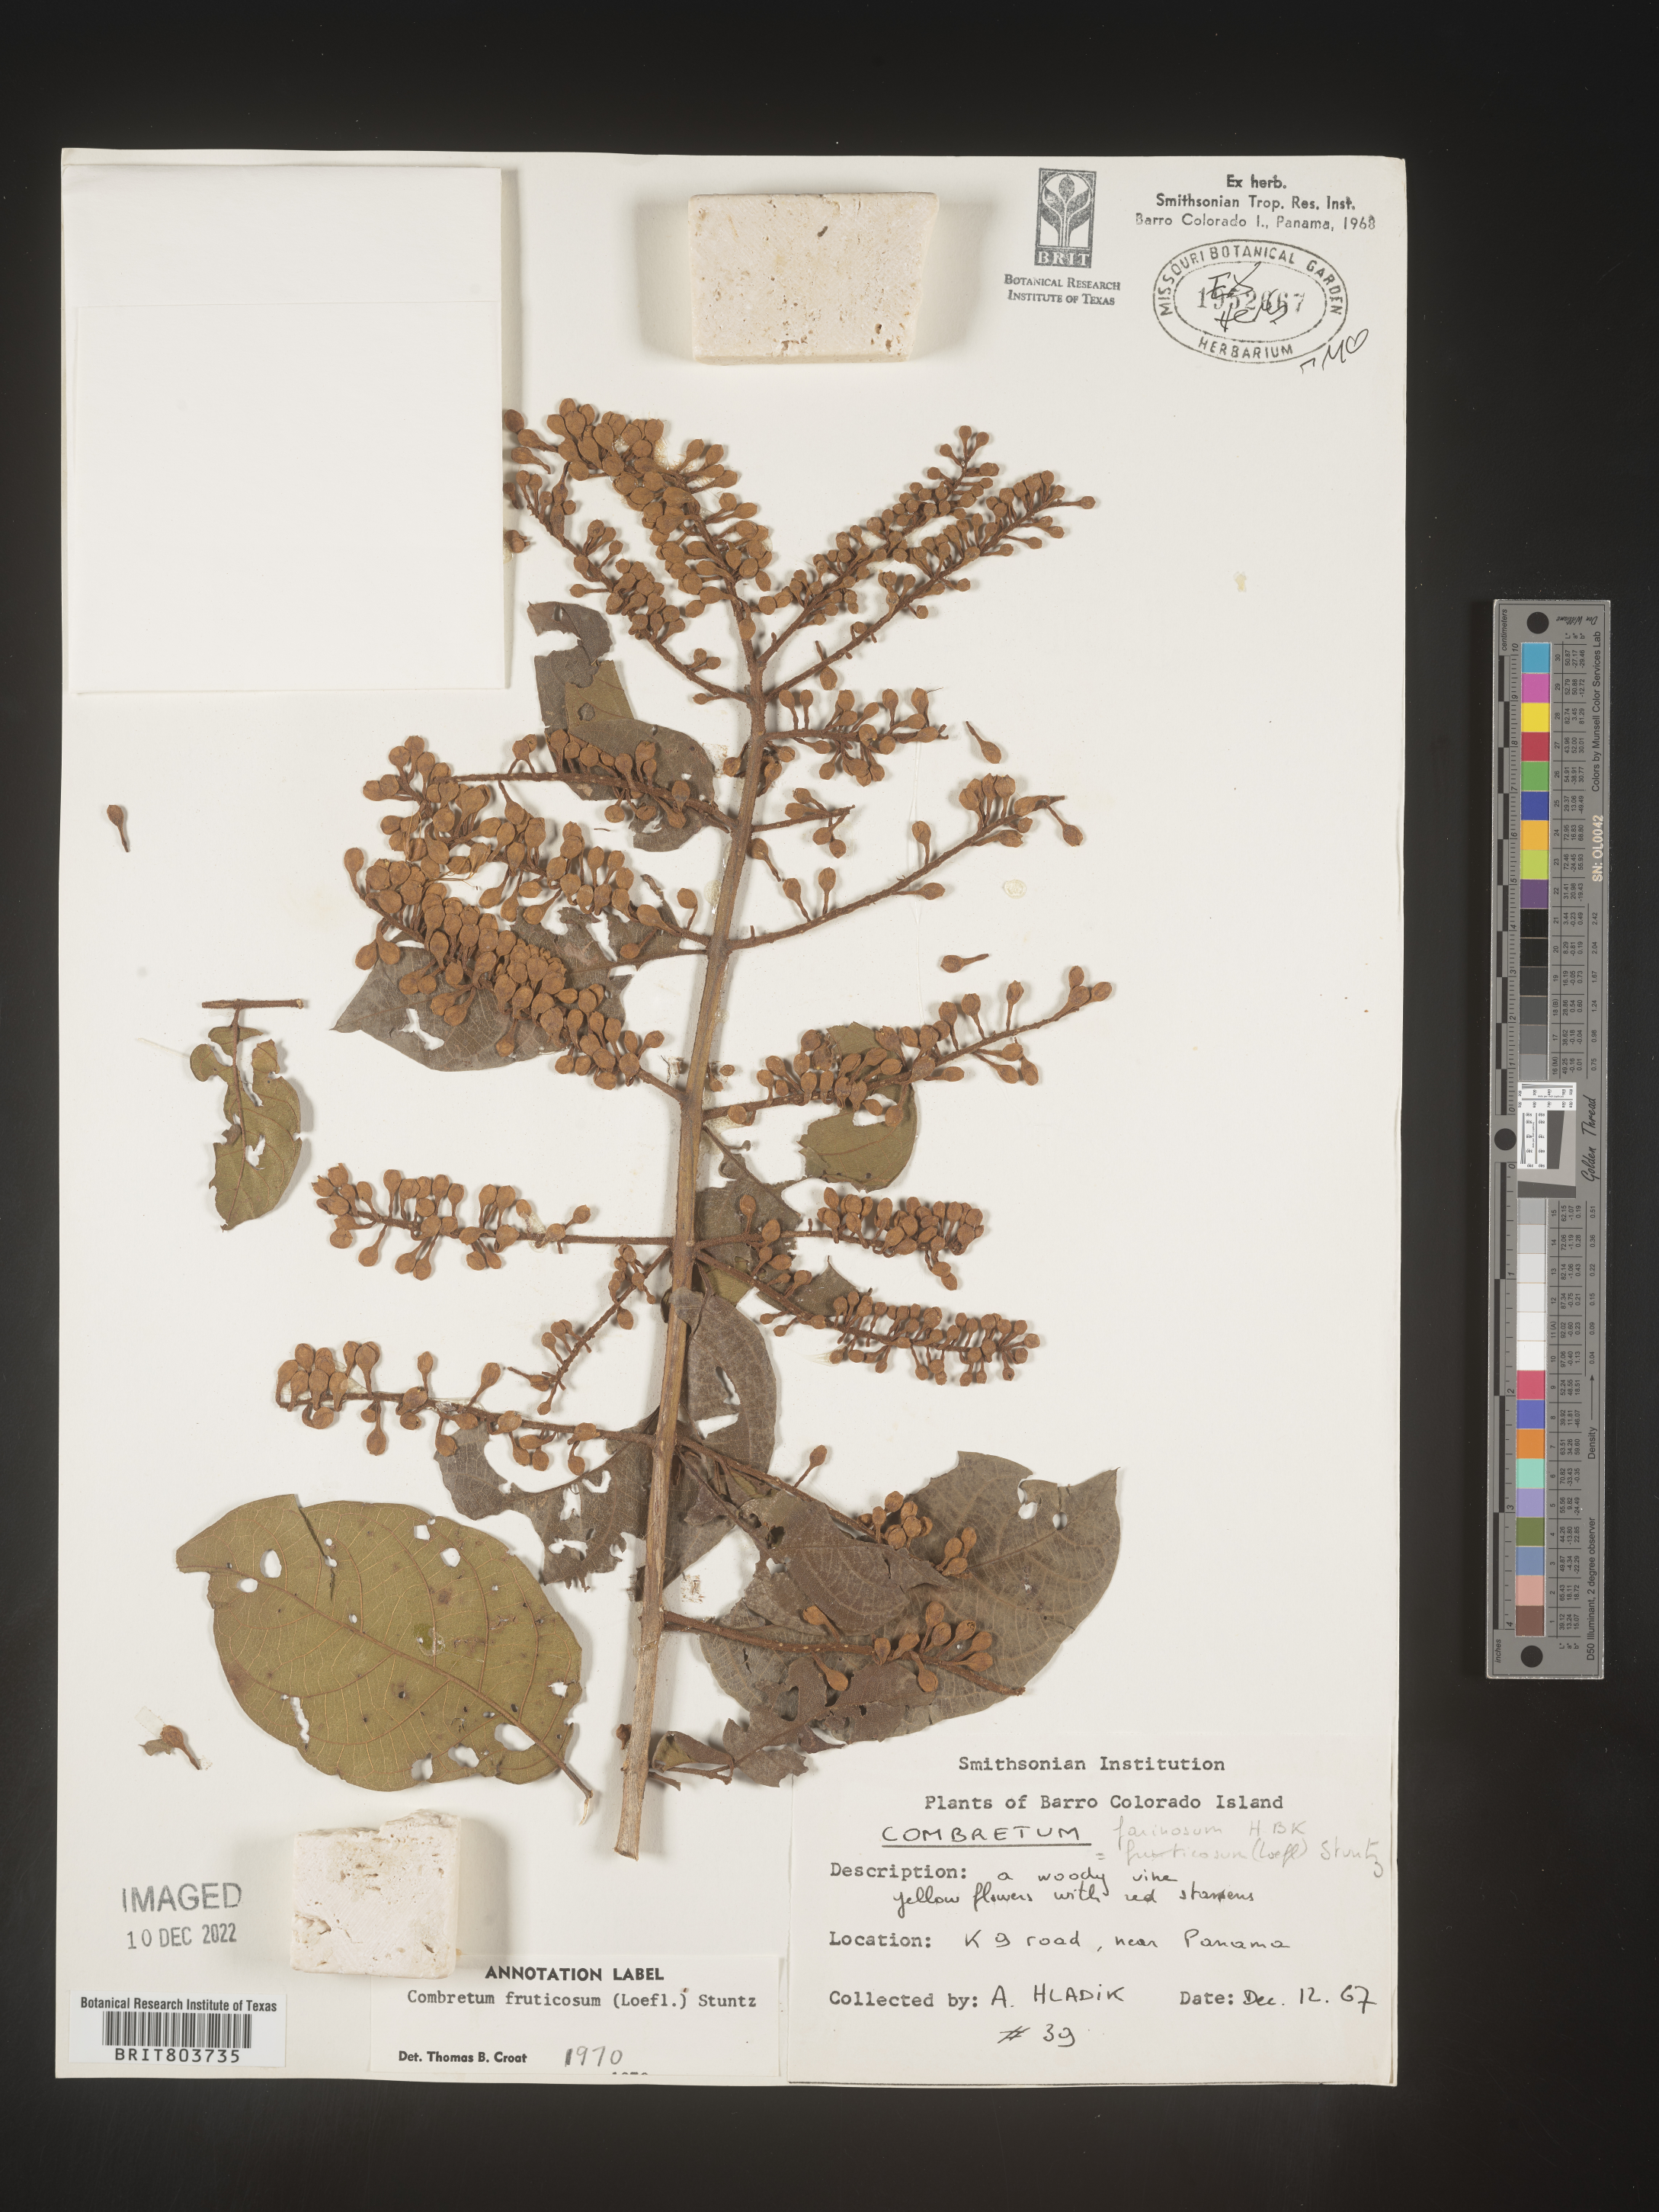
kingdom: Plantae
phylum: Tracheophyta
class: Magnoliopsida
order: Myrtales
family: Combretaceae
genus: Combretum
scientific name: Combretum
